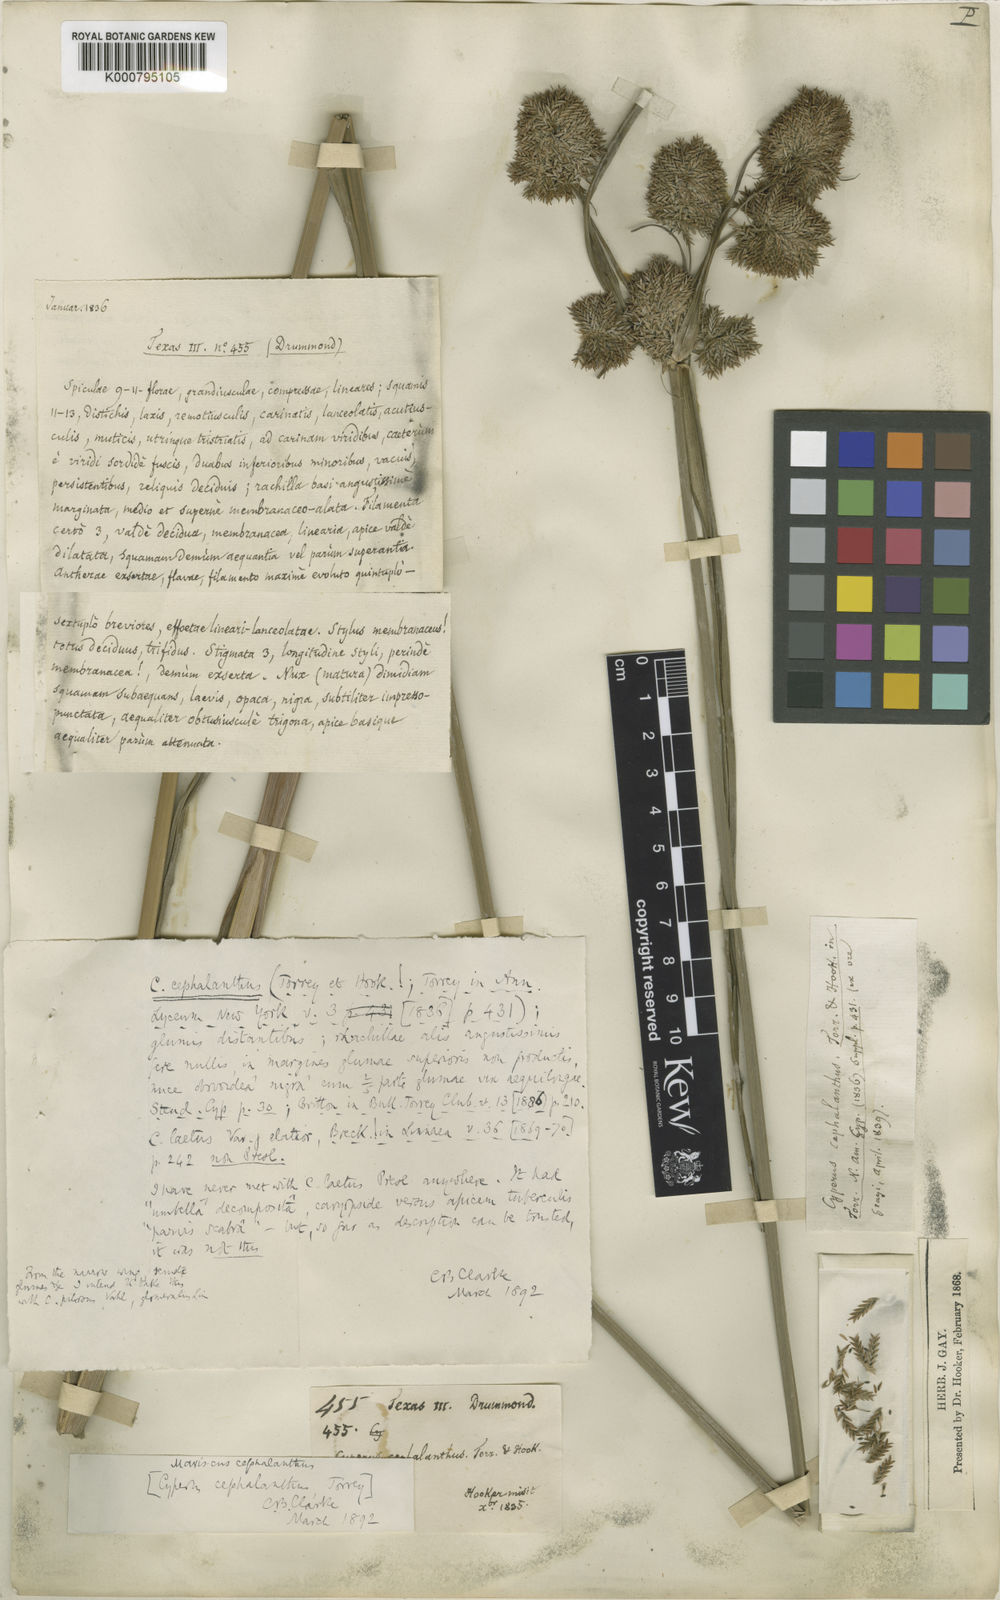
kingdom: Plantae
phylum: Tracheophyta
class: Liliopsida
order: Poales
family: Cyperaceae
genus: Cyperus
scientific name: Cyperus cephalanthus
